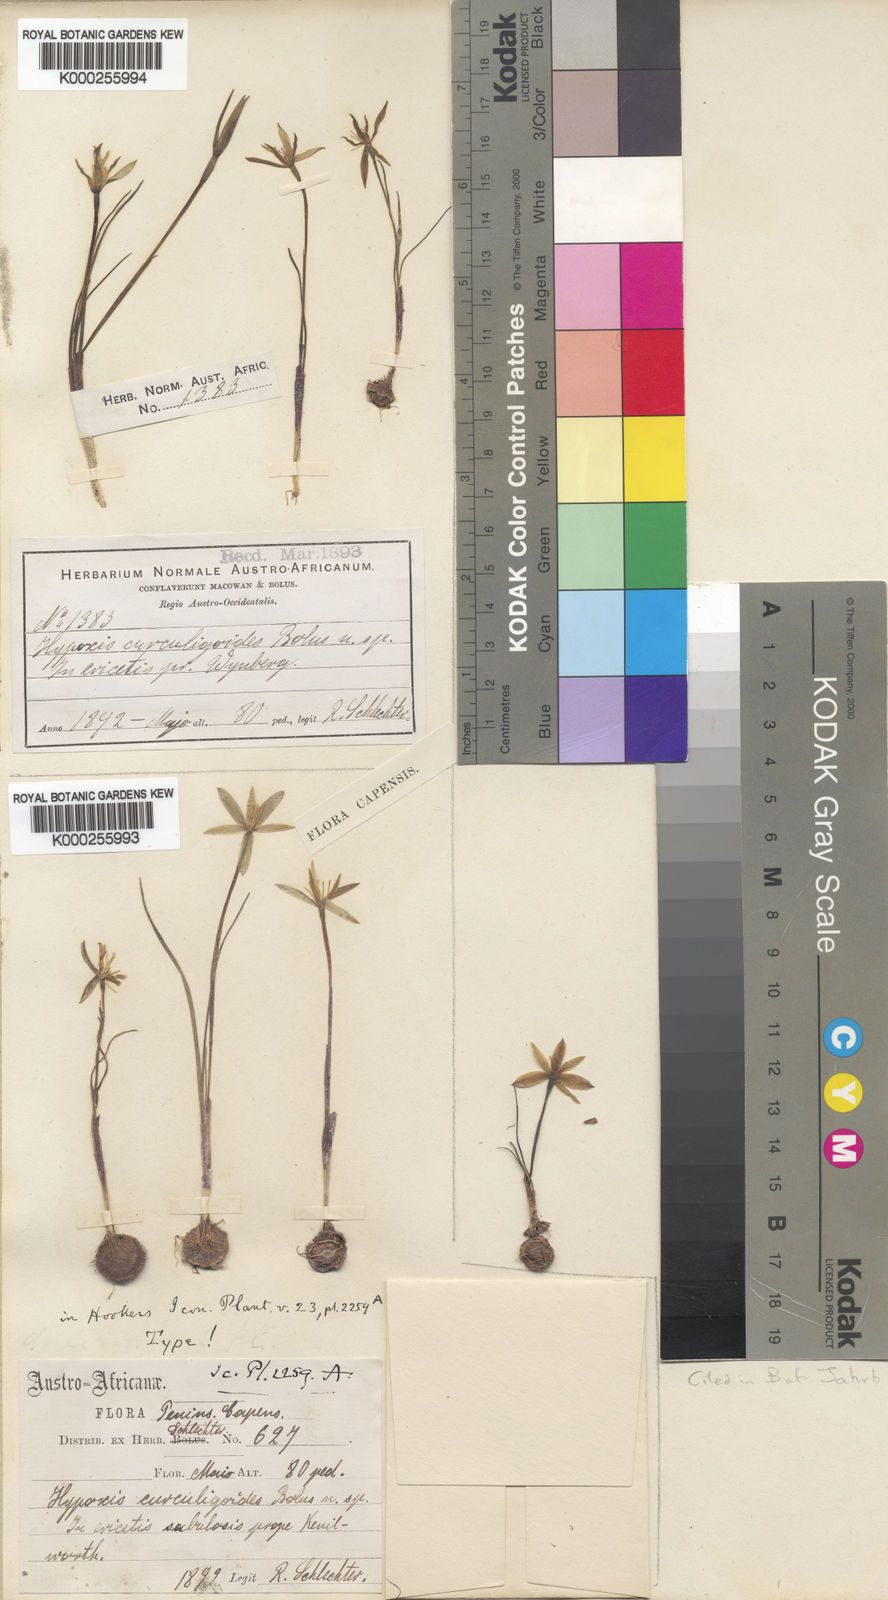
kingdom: Plantae
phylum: Tracheophyta
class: Liliopsida
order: Asparagales
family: Hypoxidaceae
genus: Pauridia
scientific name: Pauridia curculigoides
